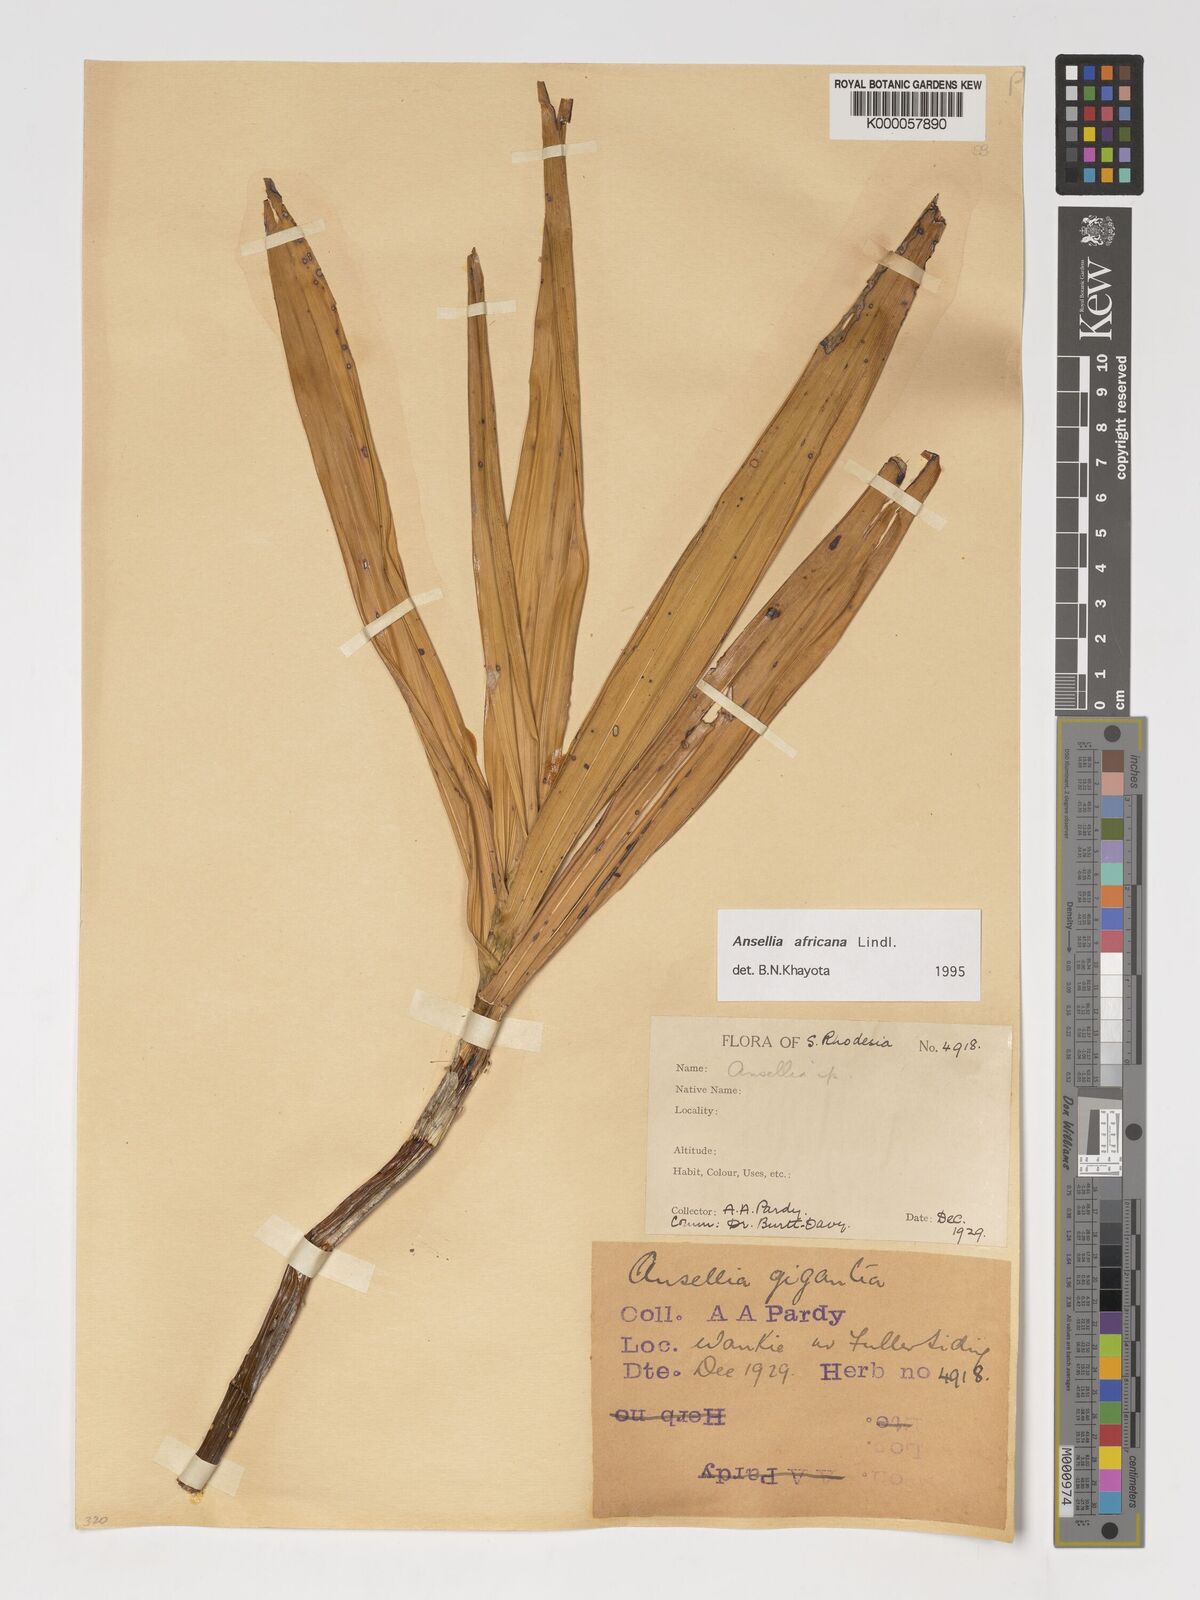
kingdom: Plantae
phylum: Tracheophyta
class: Liliopsida
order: Asparagales
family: Orchidaceae
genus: Ansellia
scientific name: Ansellia africana
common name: African ansellia
